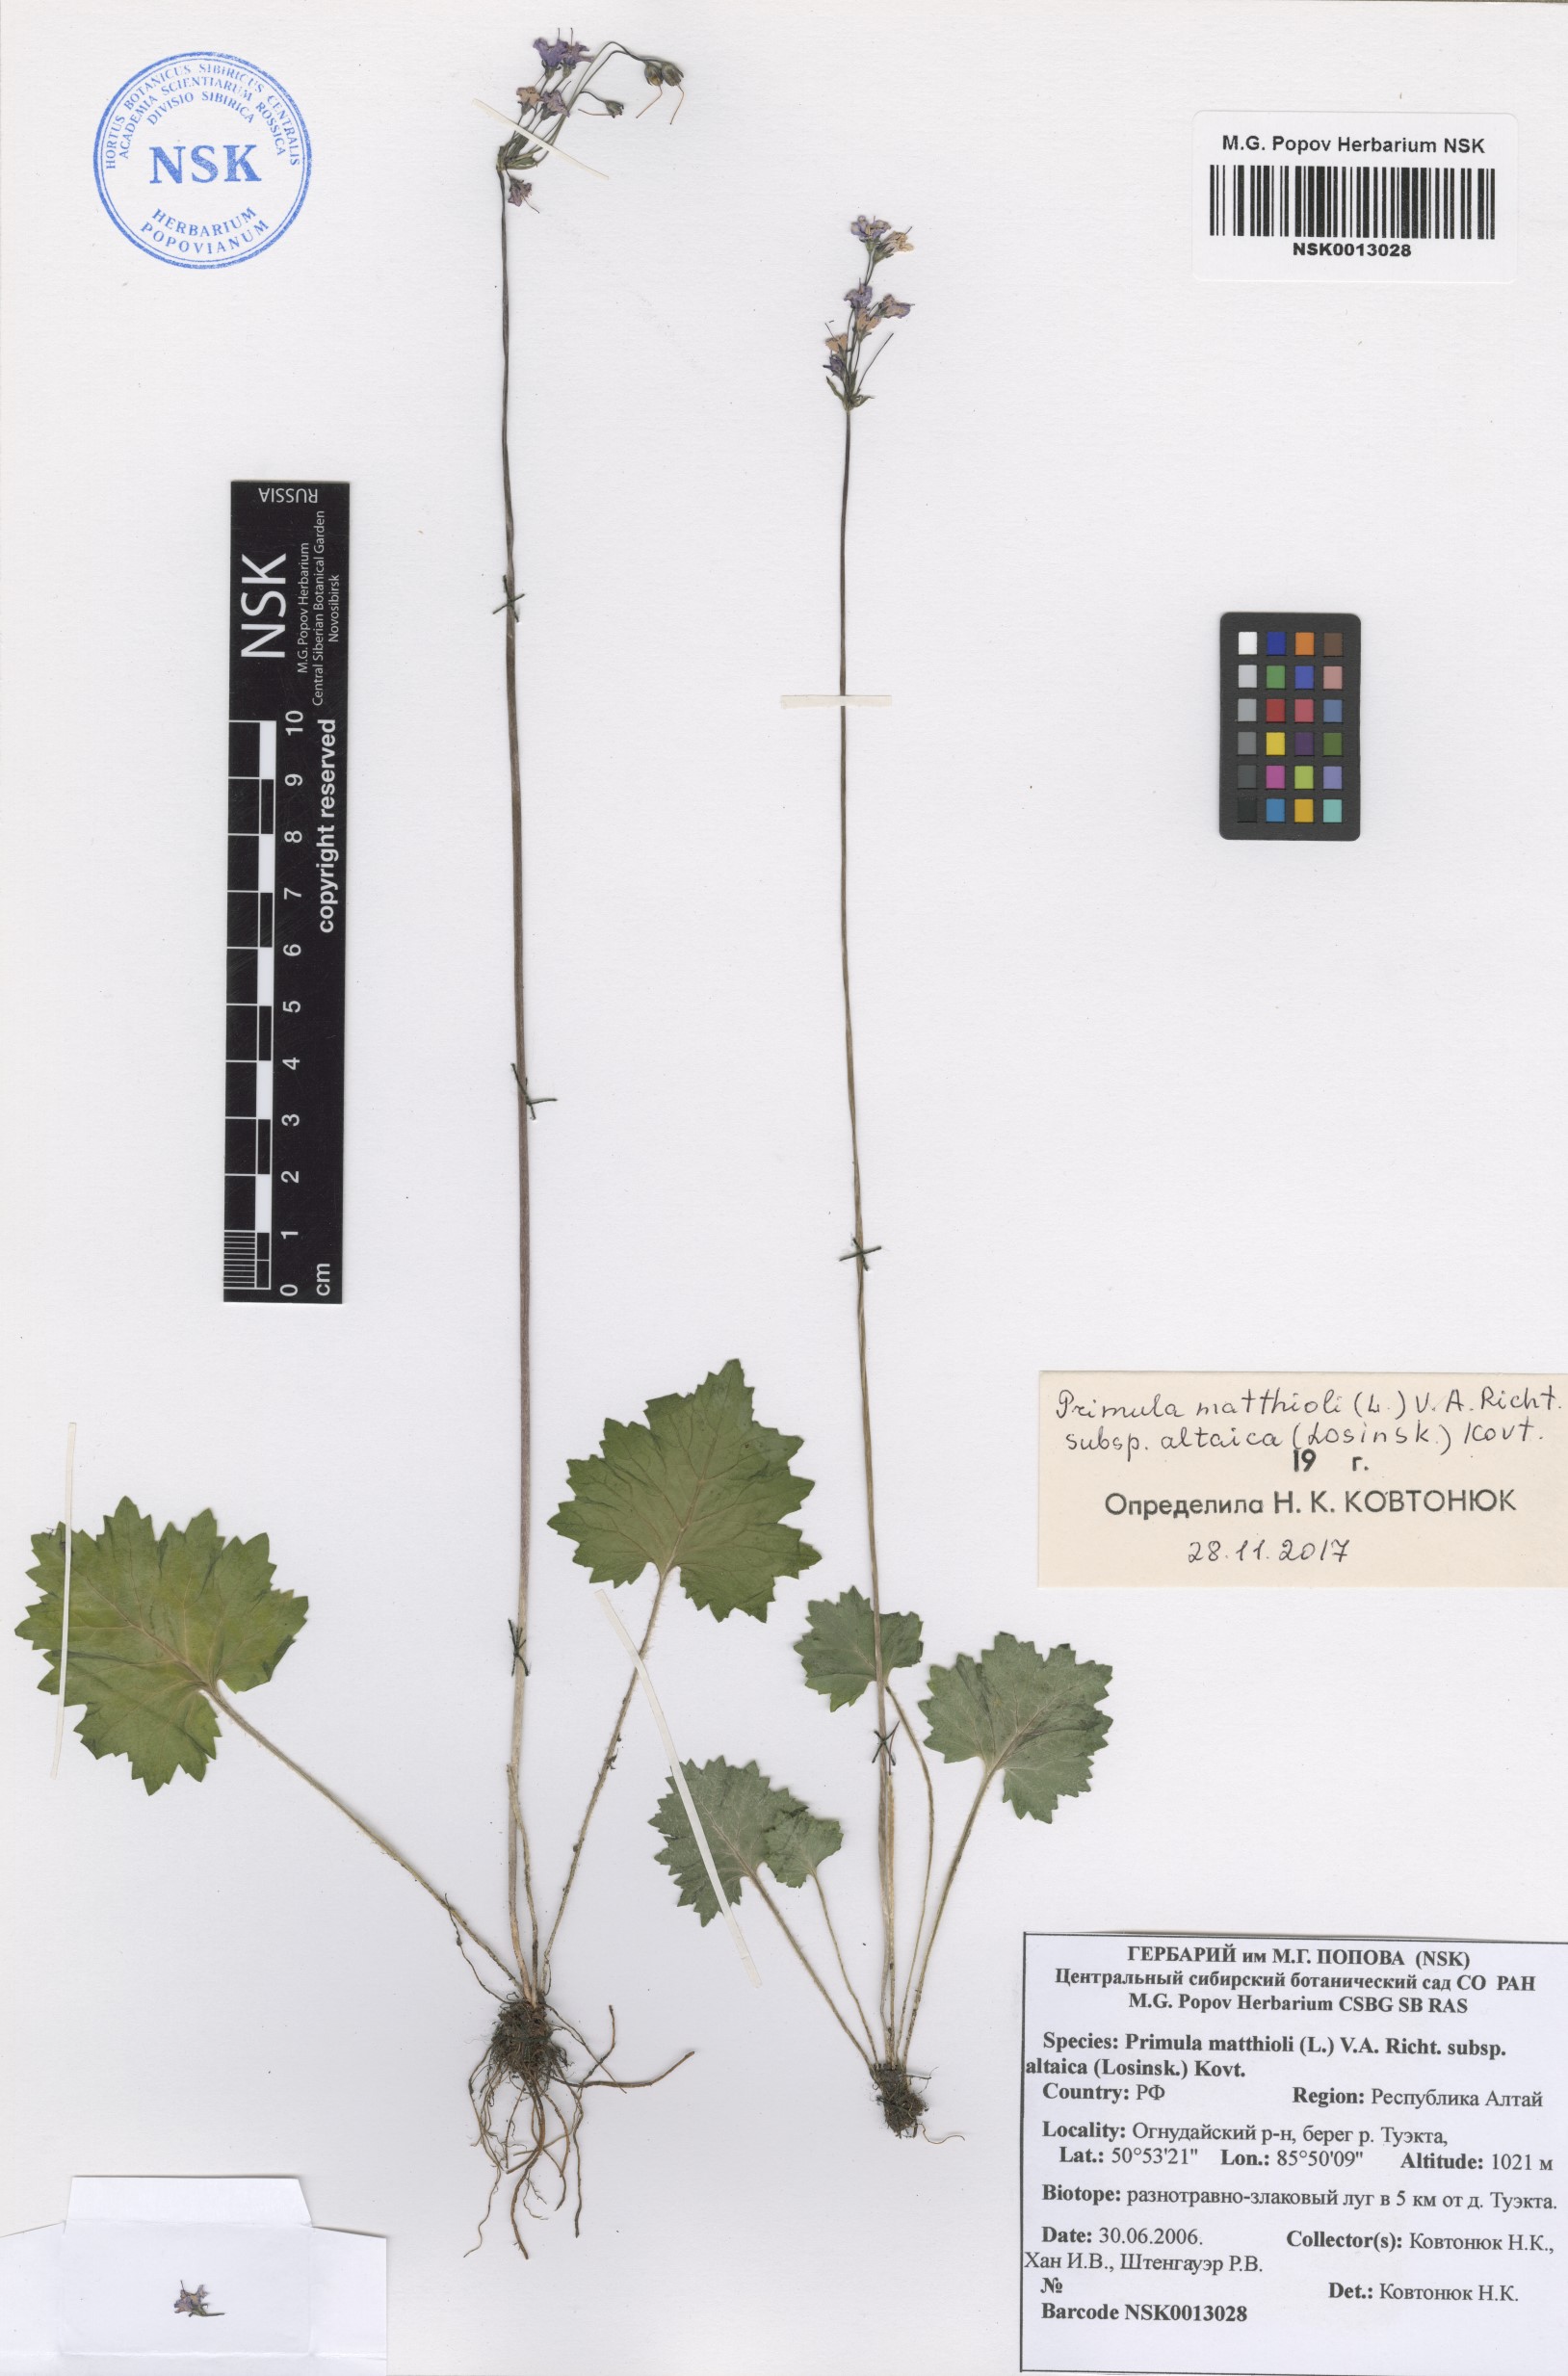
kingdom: Plantae
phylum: Tracheophyta
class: Magnoliopsida
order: Ericales
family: Primulaceae
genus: Primula
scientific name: Primula matthioli
